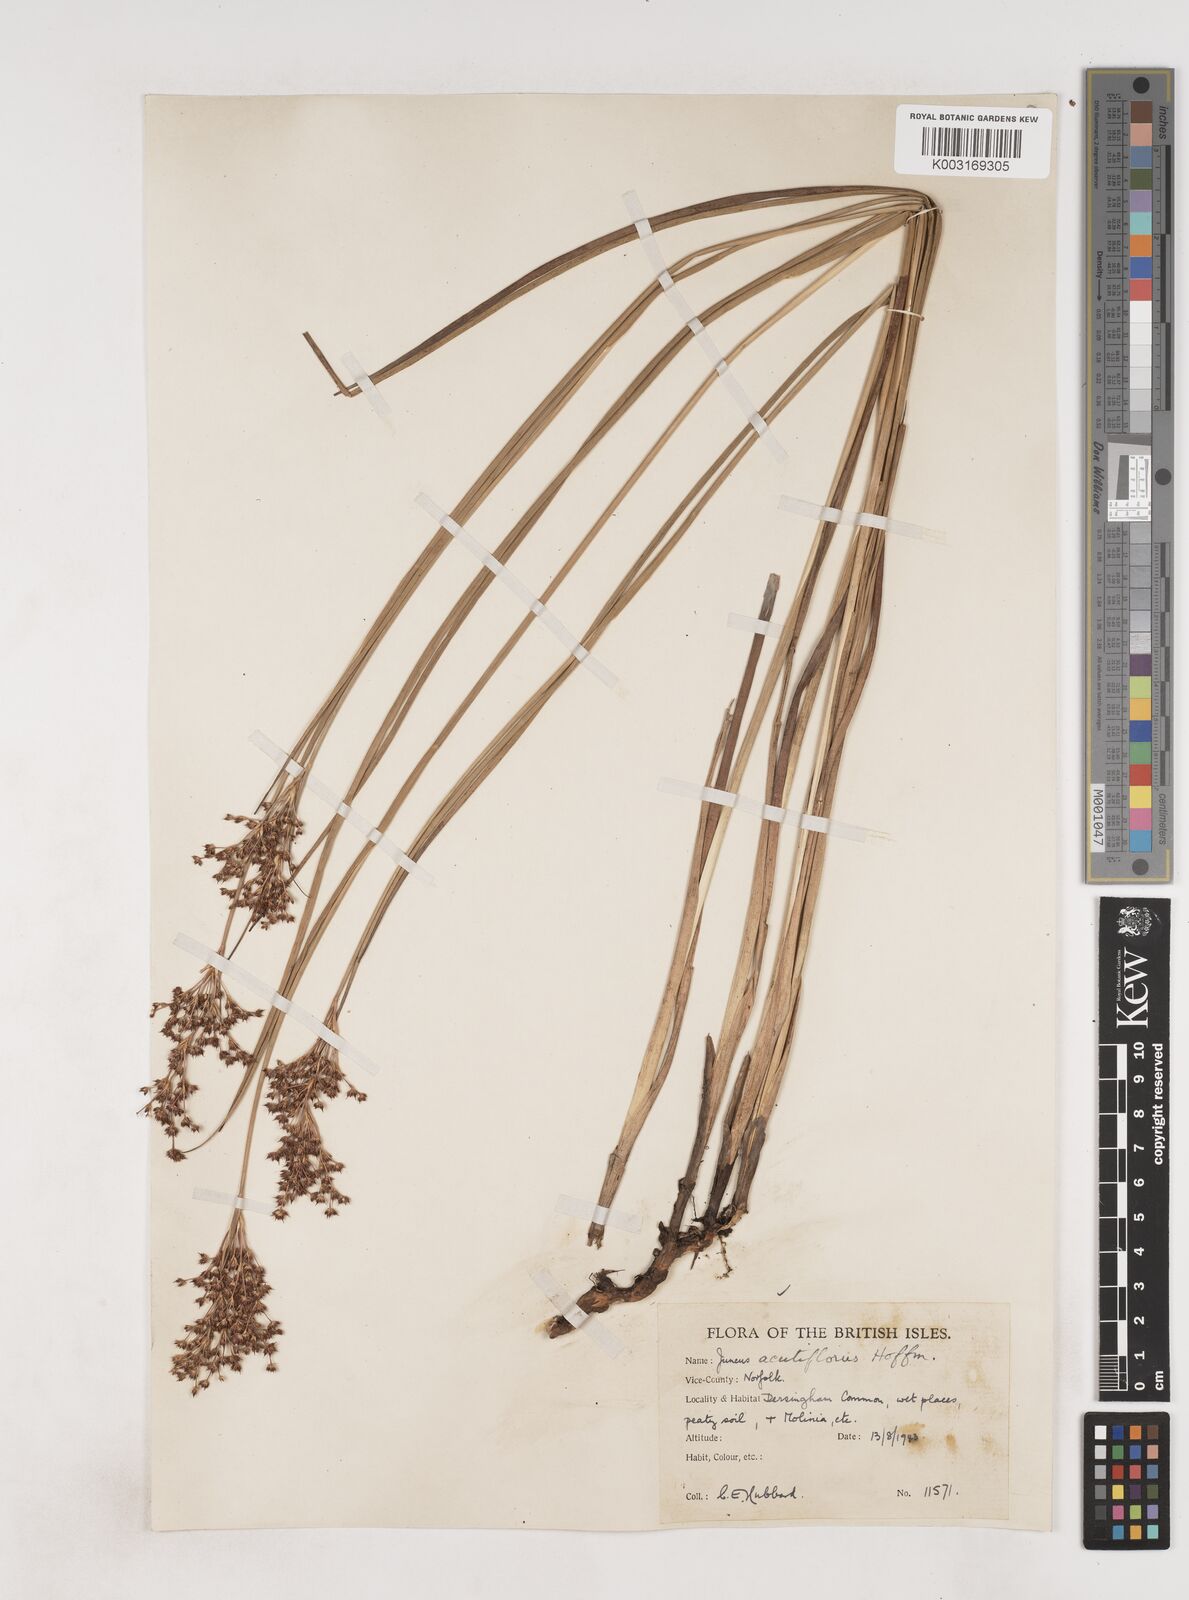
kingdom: Plantae
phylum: Tracheophyta
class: Liliopsida
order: Poales
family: Juncaceae
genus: Juncus
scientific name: Juncus acutiflorus
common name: Sharp-flowered rush
